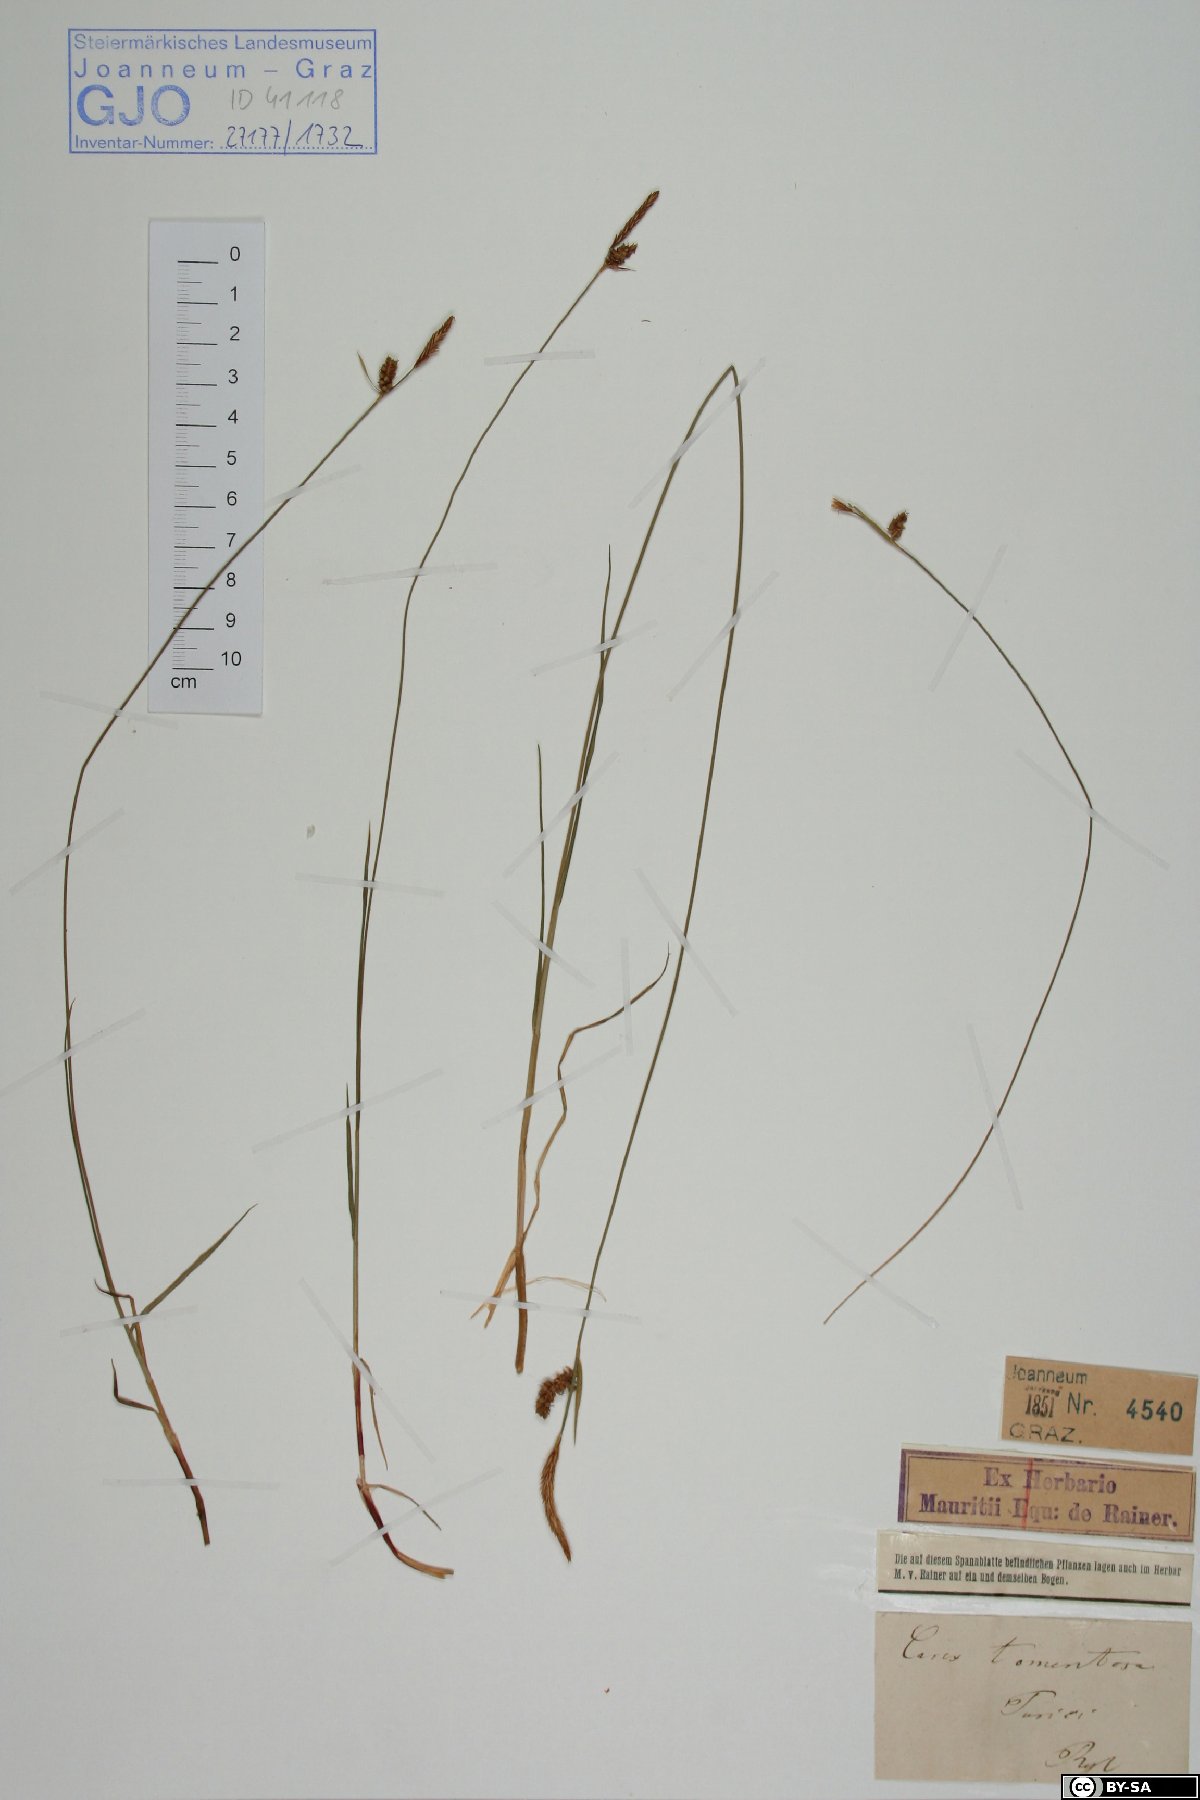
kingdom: Plantae
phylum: Tracheophyta
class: Liliopsida
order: Poales
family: Cyperaceae
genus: Carex
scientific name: Carex tomentosa
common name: Downy-fruited sedge
